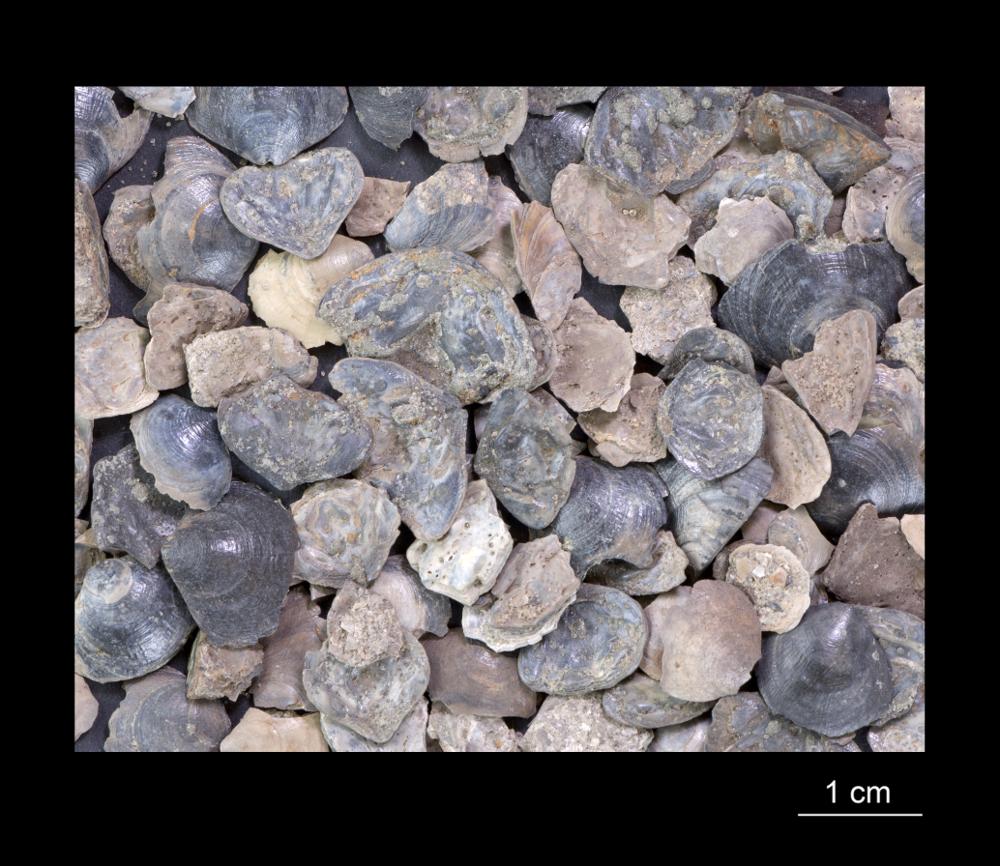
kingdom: Animalia
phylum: Brachiopoda
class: Lingulata
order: Lingulida
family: Obolidae
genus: Obolus
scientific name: Obolus
